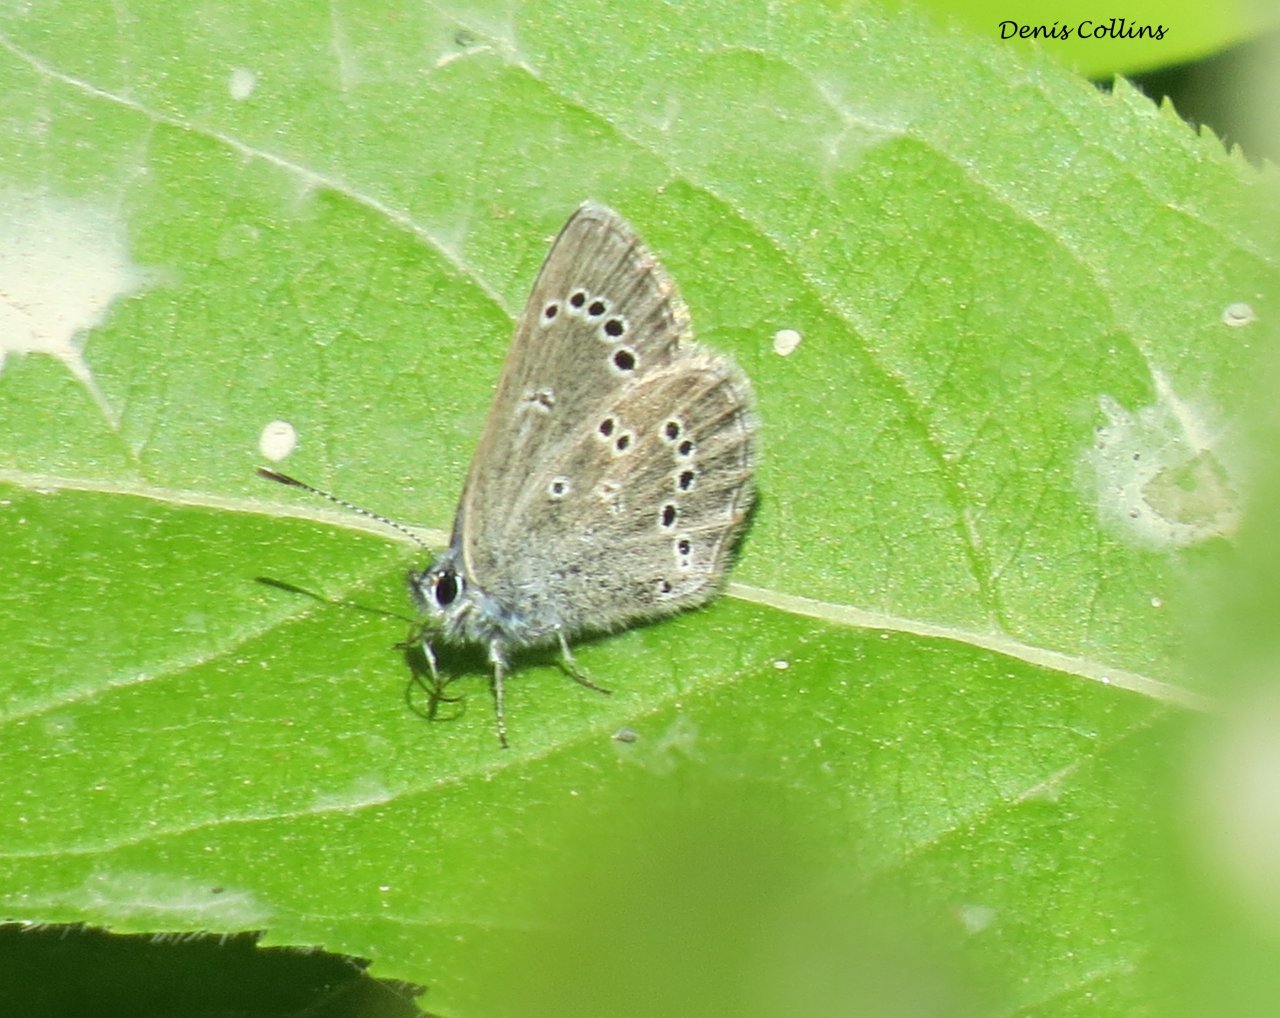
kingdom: Animalia
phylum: Arthropoda
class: Insecta
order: Lepidoptera
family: Lycaenidae
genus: Glaucopsyche
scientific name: Glaucopsyche lygdamus
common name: Silvery Blue
